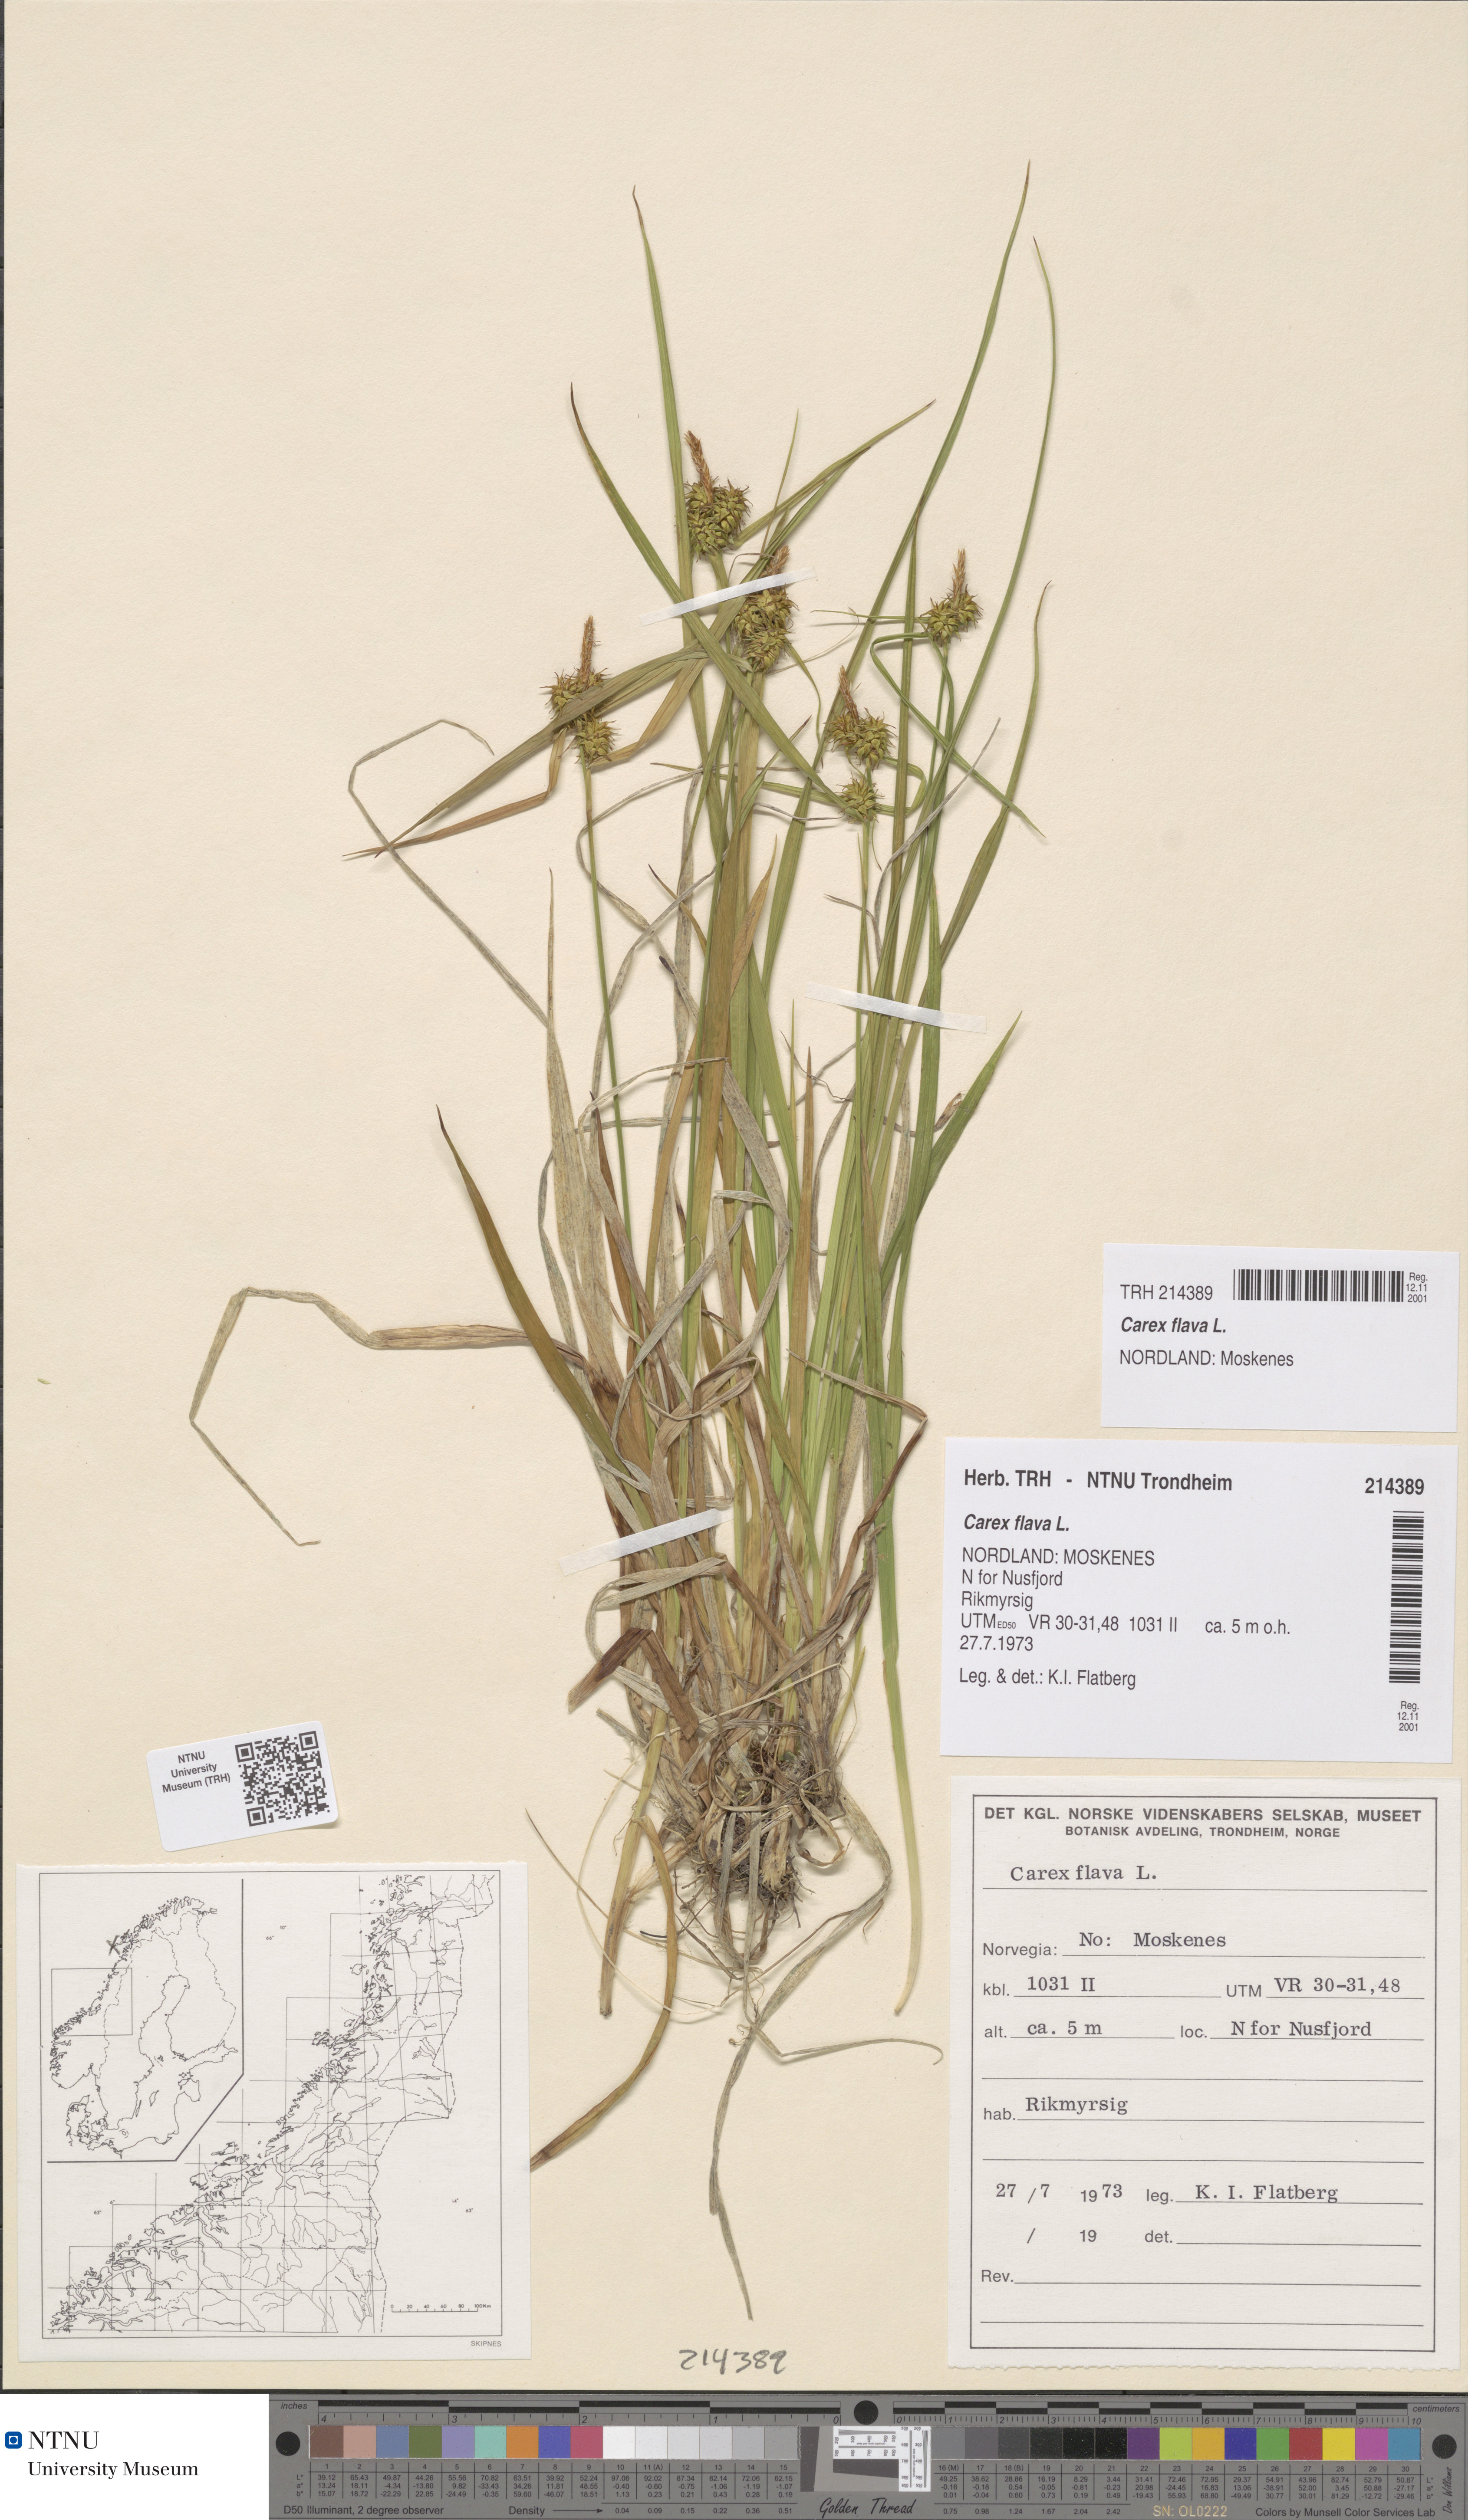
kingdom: Plantae
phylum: Tracheophyta
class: Liliopsida
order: Poales
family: Cyperaceae
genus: Carex
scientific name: Carex flava
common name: Large yellow-sedge
